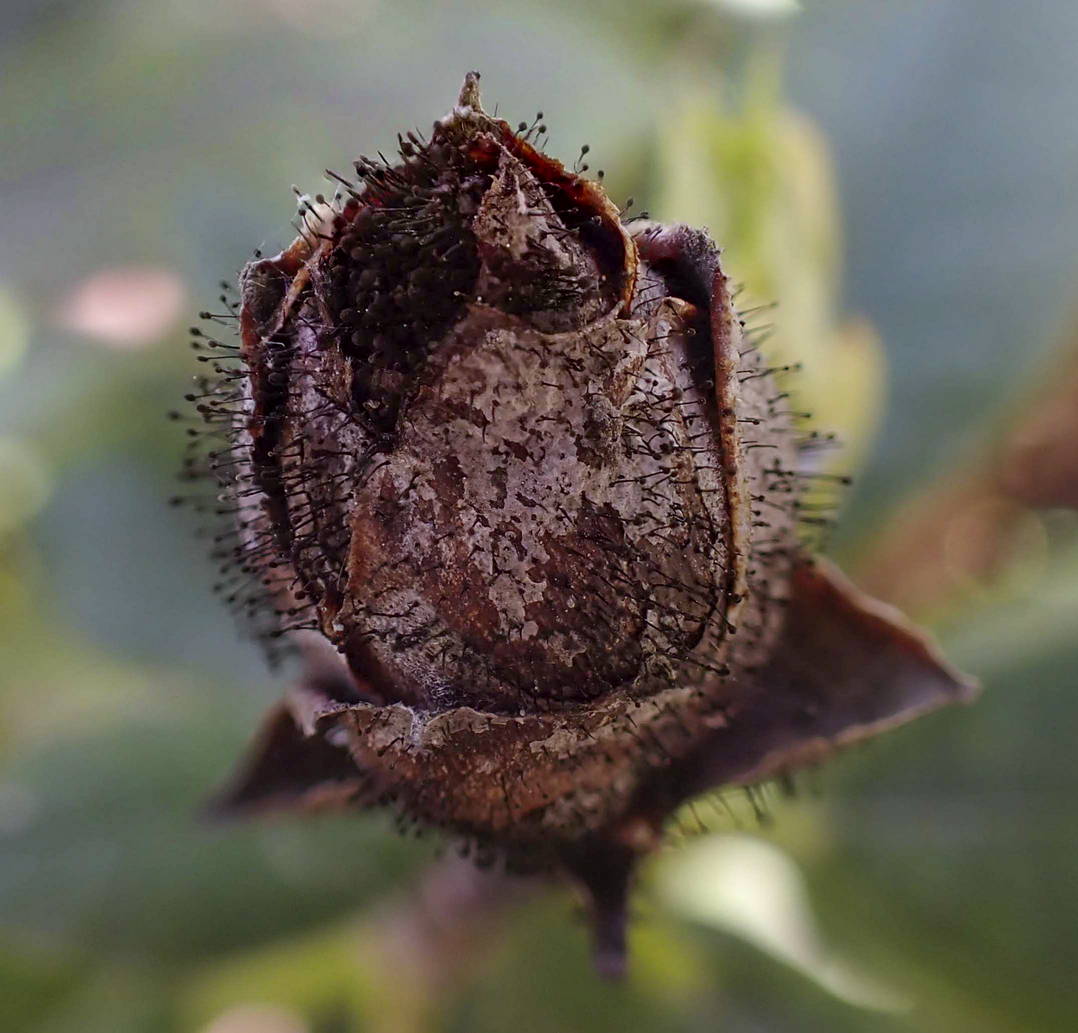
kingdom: Fungi
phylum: Ascomycota
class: Dothideomycetes
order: Pleosporales
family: Melanommataceae
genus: Seifertia
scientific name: Seifertia azaleae
